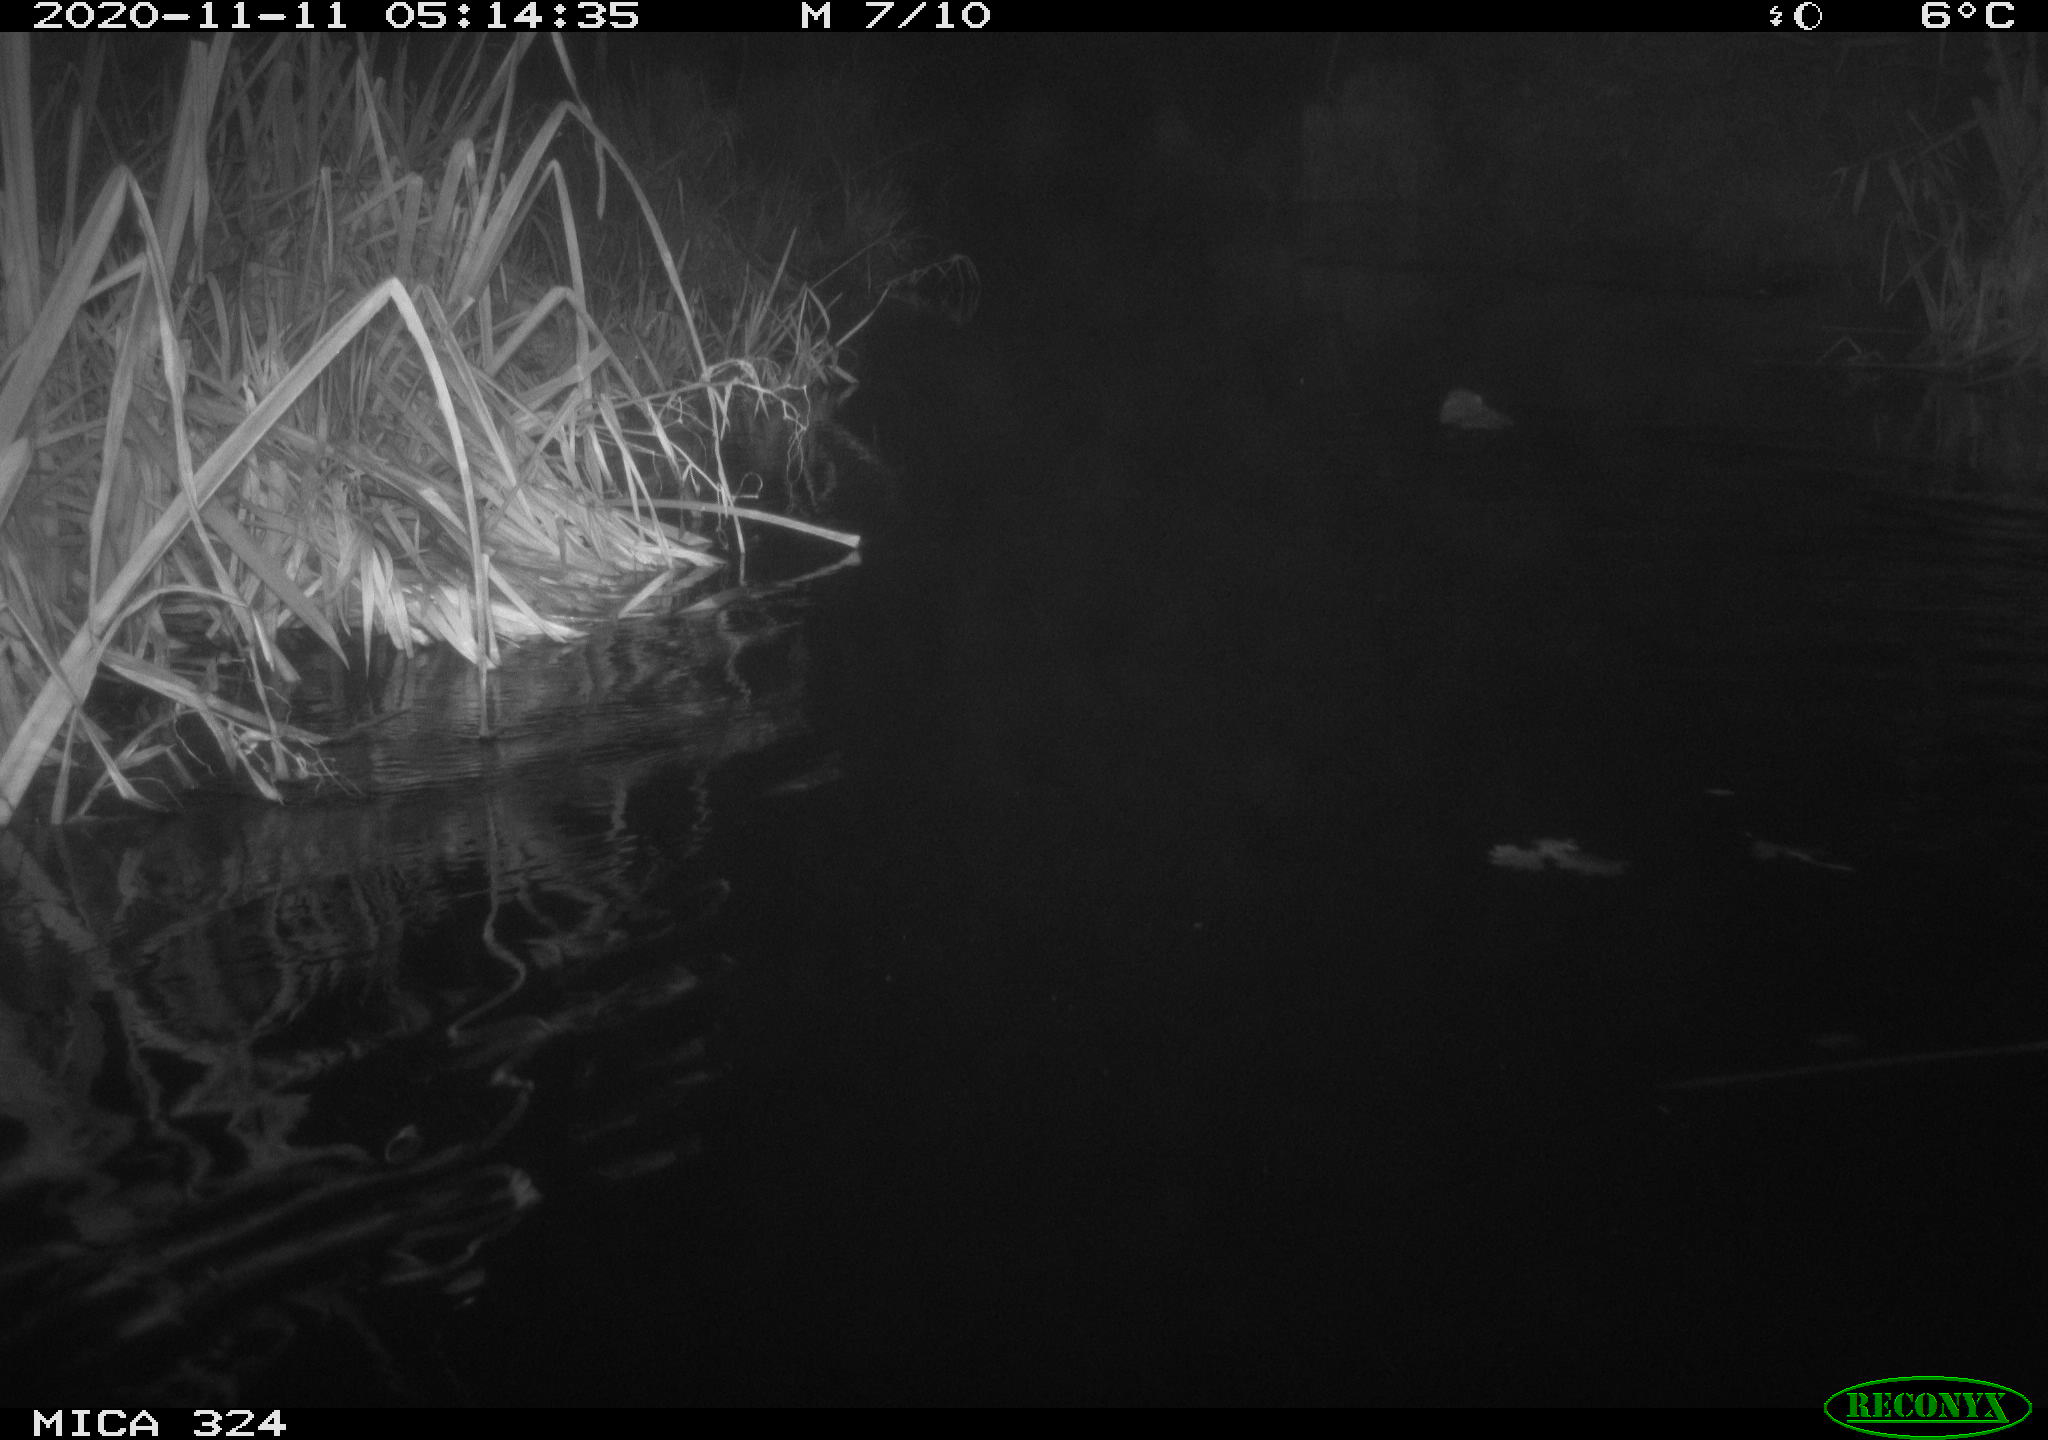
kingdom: Animalia
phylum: Chordata
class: Mammalia
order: Rodentia
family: Myocastoridae
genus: Myocastor
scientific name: Myocastor coypus
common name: Coypu
